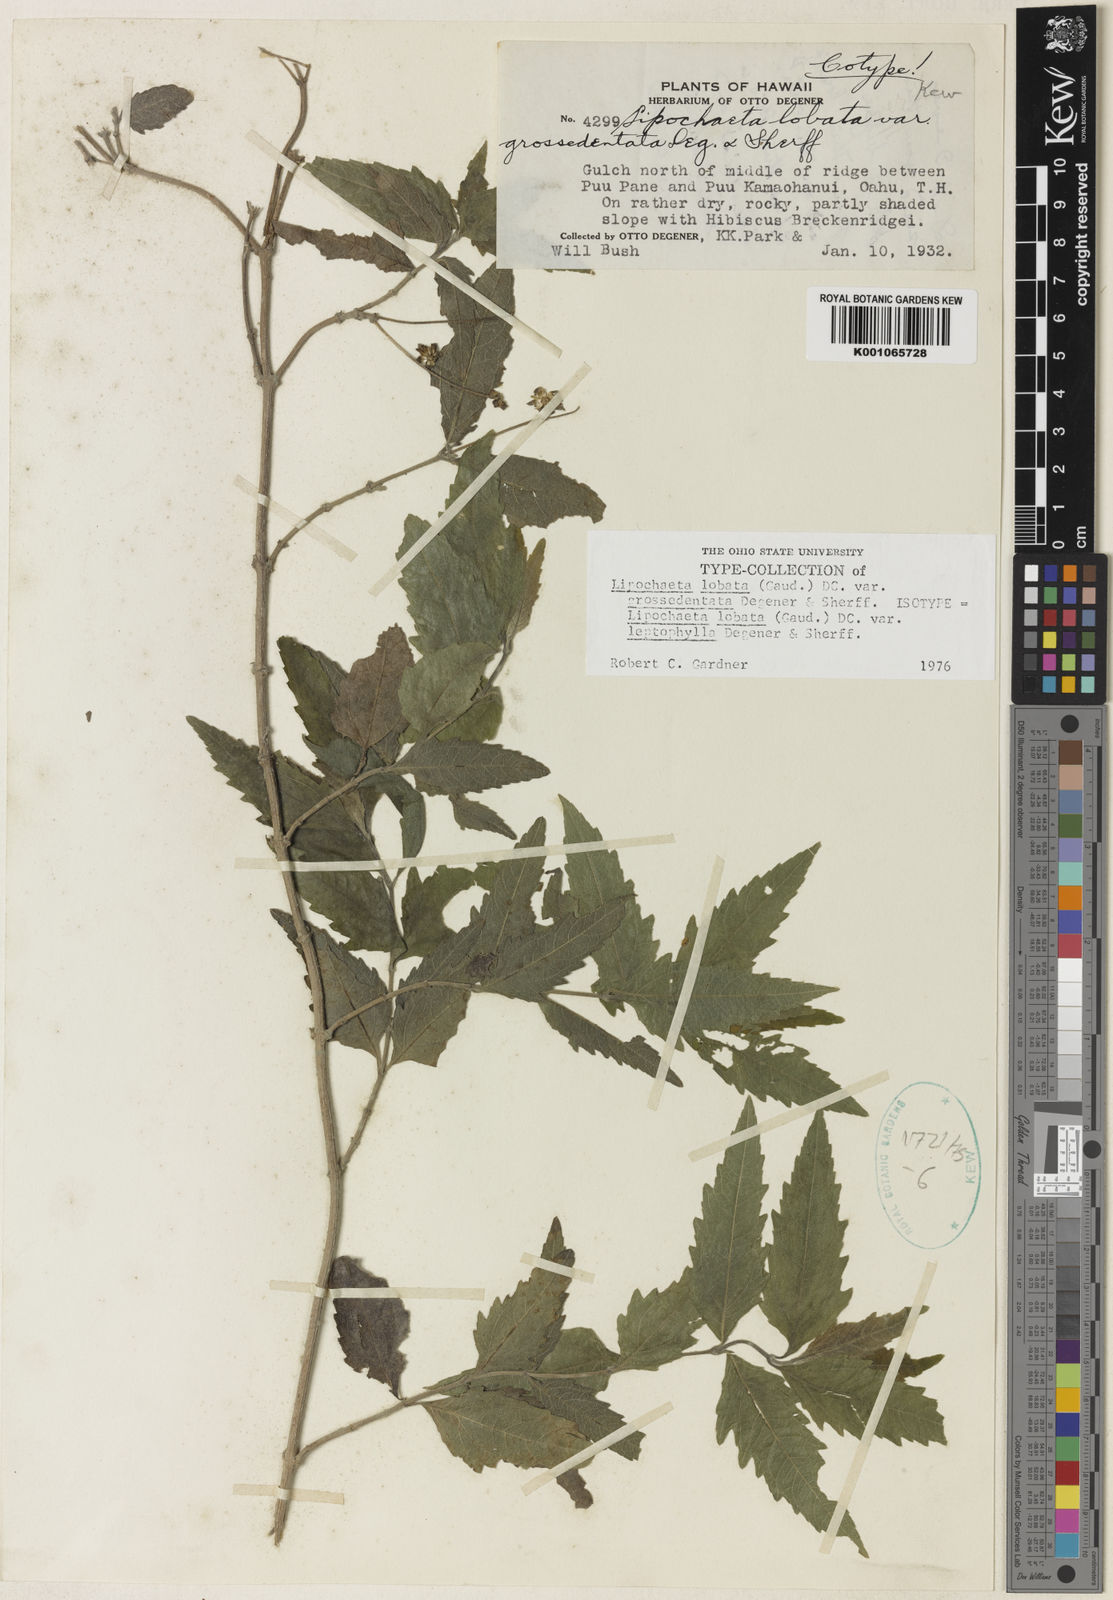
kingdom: Plantae
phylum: Tracheophyta
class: Magnoliopsida
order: Asterales
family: Asteraceae
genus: Lipochaeta
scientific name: Lipochaeta lobata
